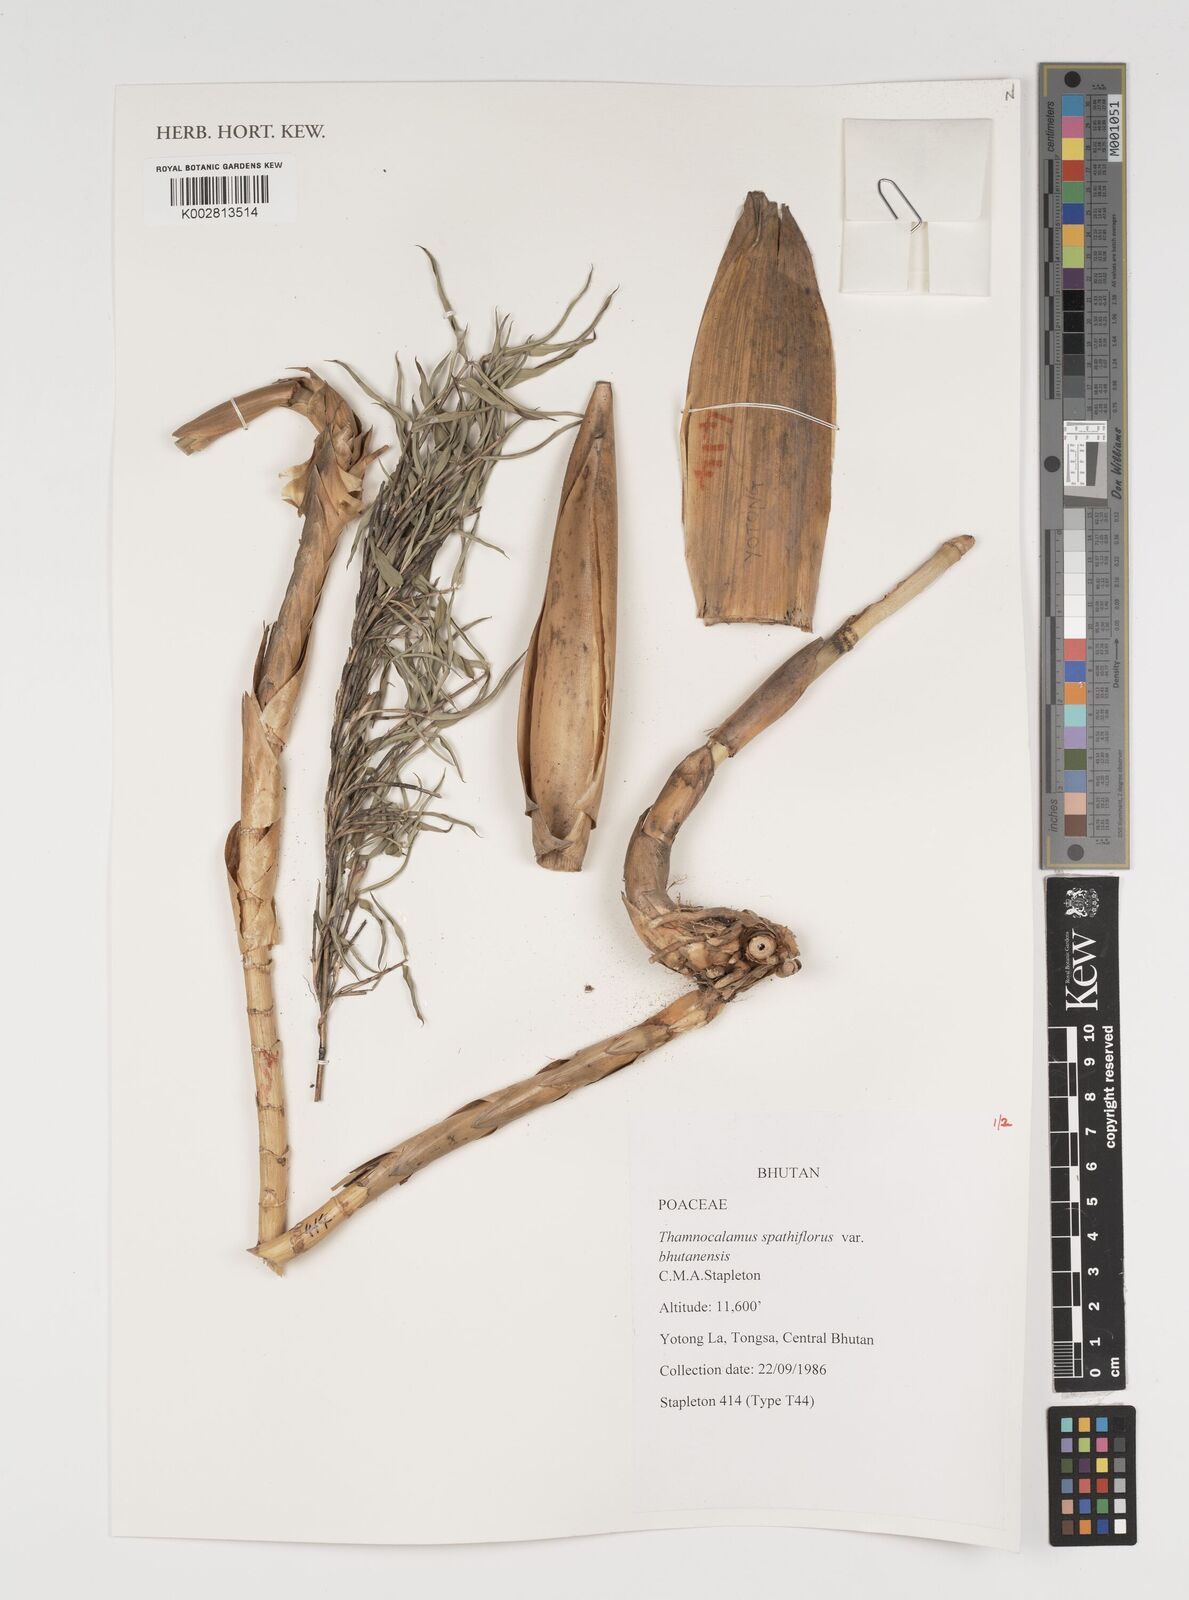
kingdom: Plantae
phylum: Tracheophyta
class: Liliopsida
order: Poales
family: Poaceae
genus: Thamnocalamus
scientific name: Thamnocalamus spathiflorus
